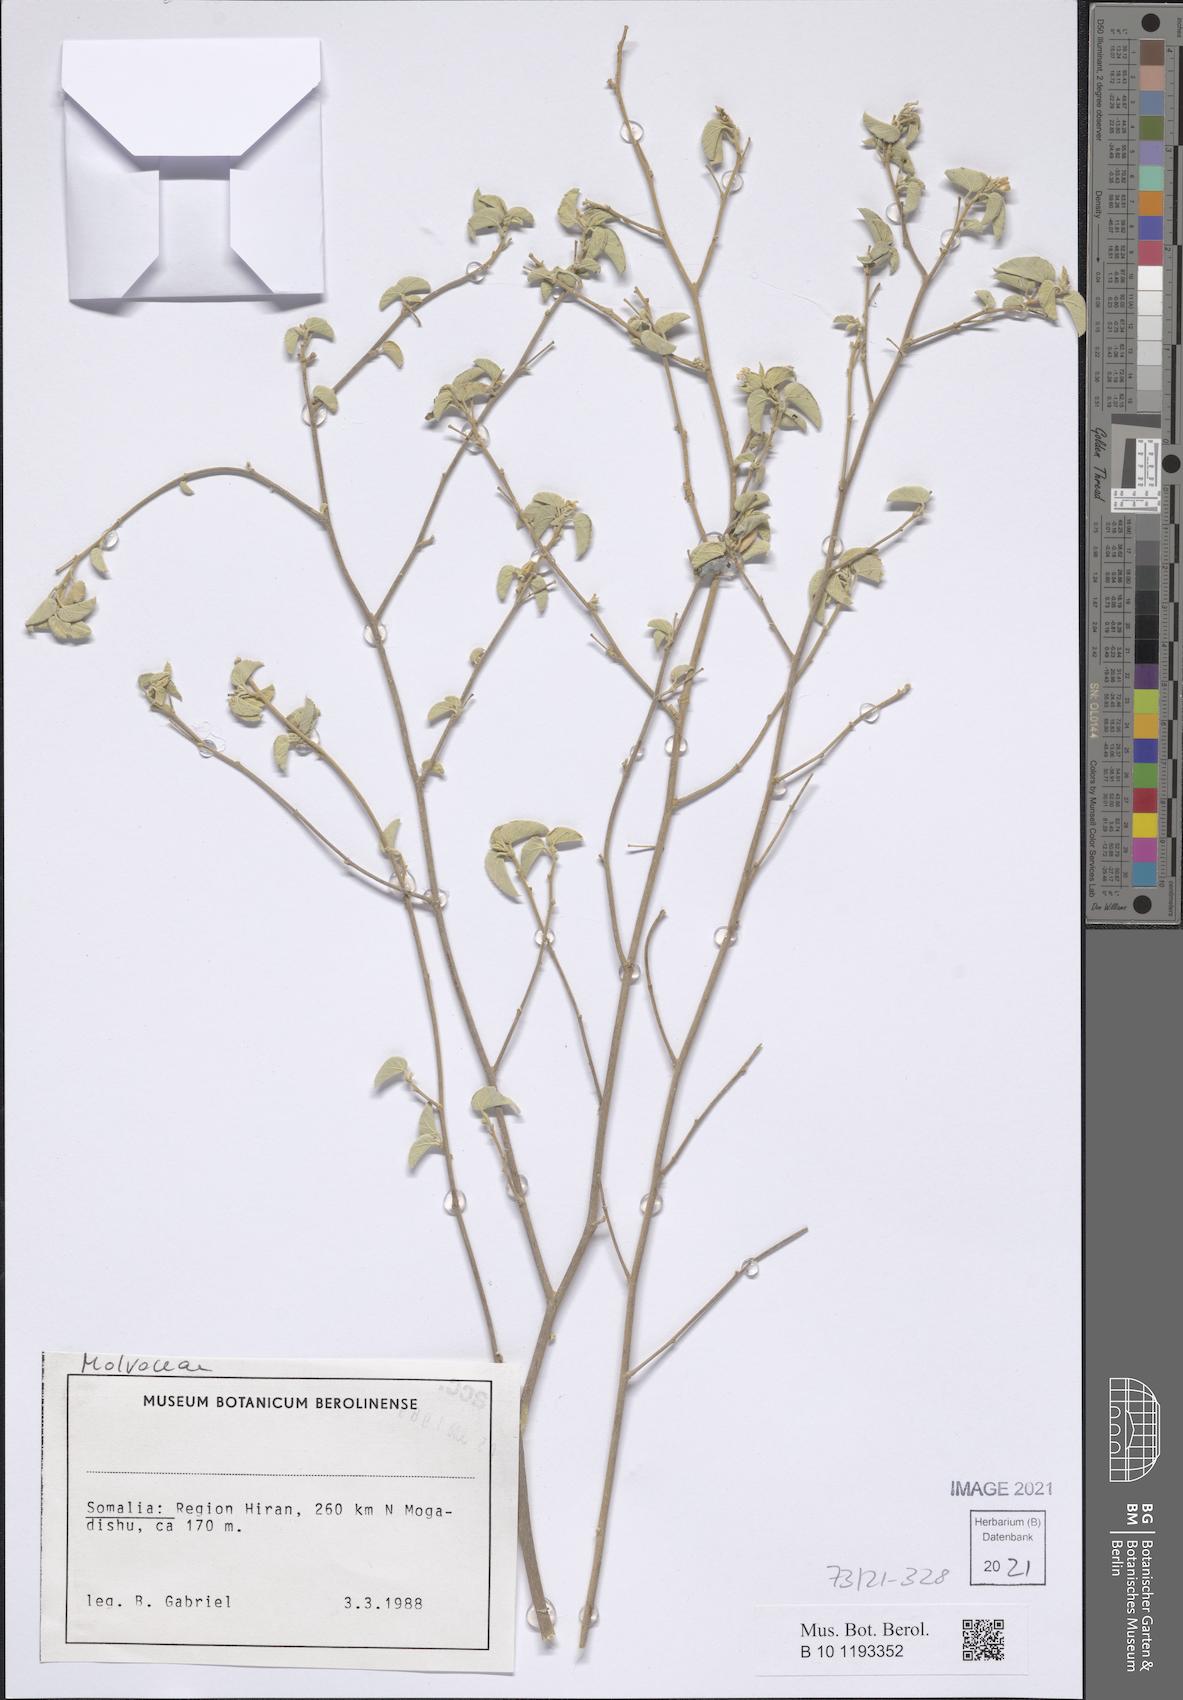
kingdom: Plantae
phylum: Tracheophyta
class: Magnoliopsida
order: Malvales
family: Malvaceae
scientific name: Malvaceae
